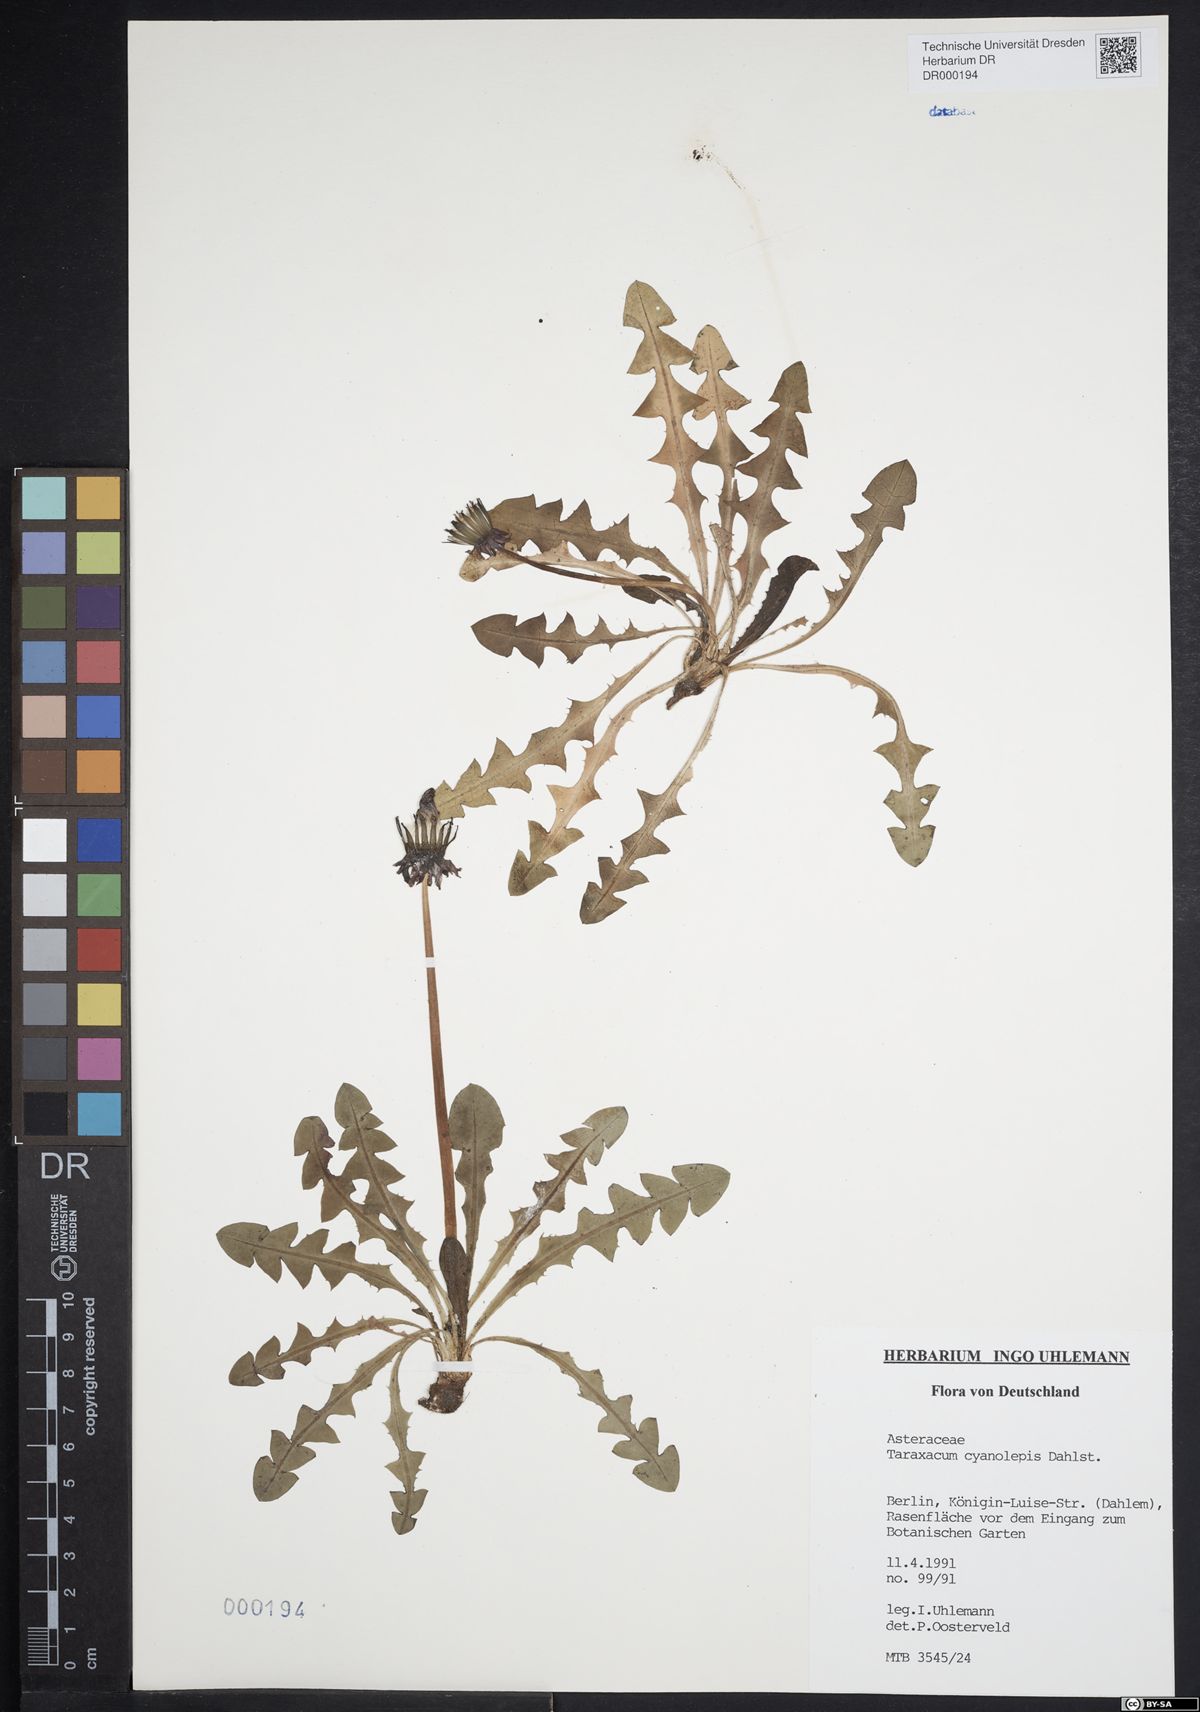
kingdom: Plantae
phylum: Tracheophyta
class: Magnoliopsida
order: Asterales
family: Asteraceae
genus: Taraxacum
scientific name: Taraxacum cyanolepis
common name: Bluish-bracted dandelion
